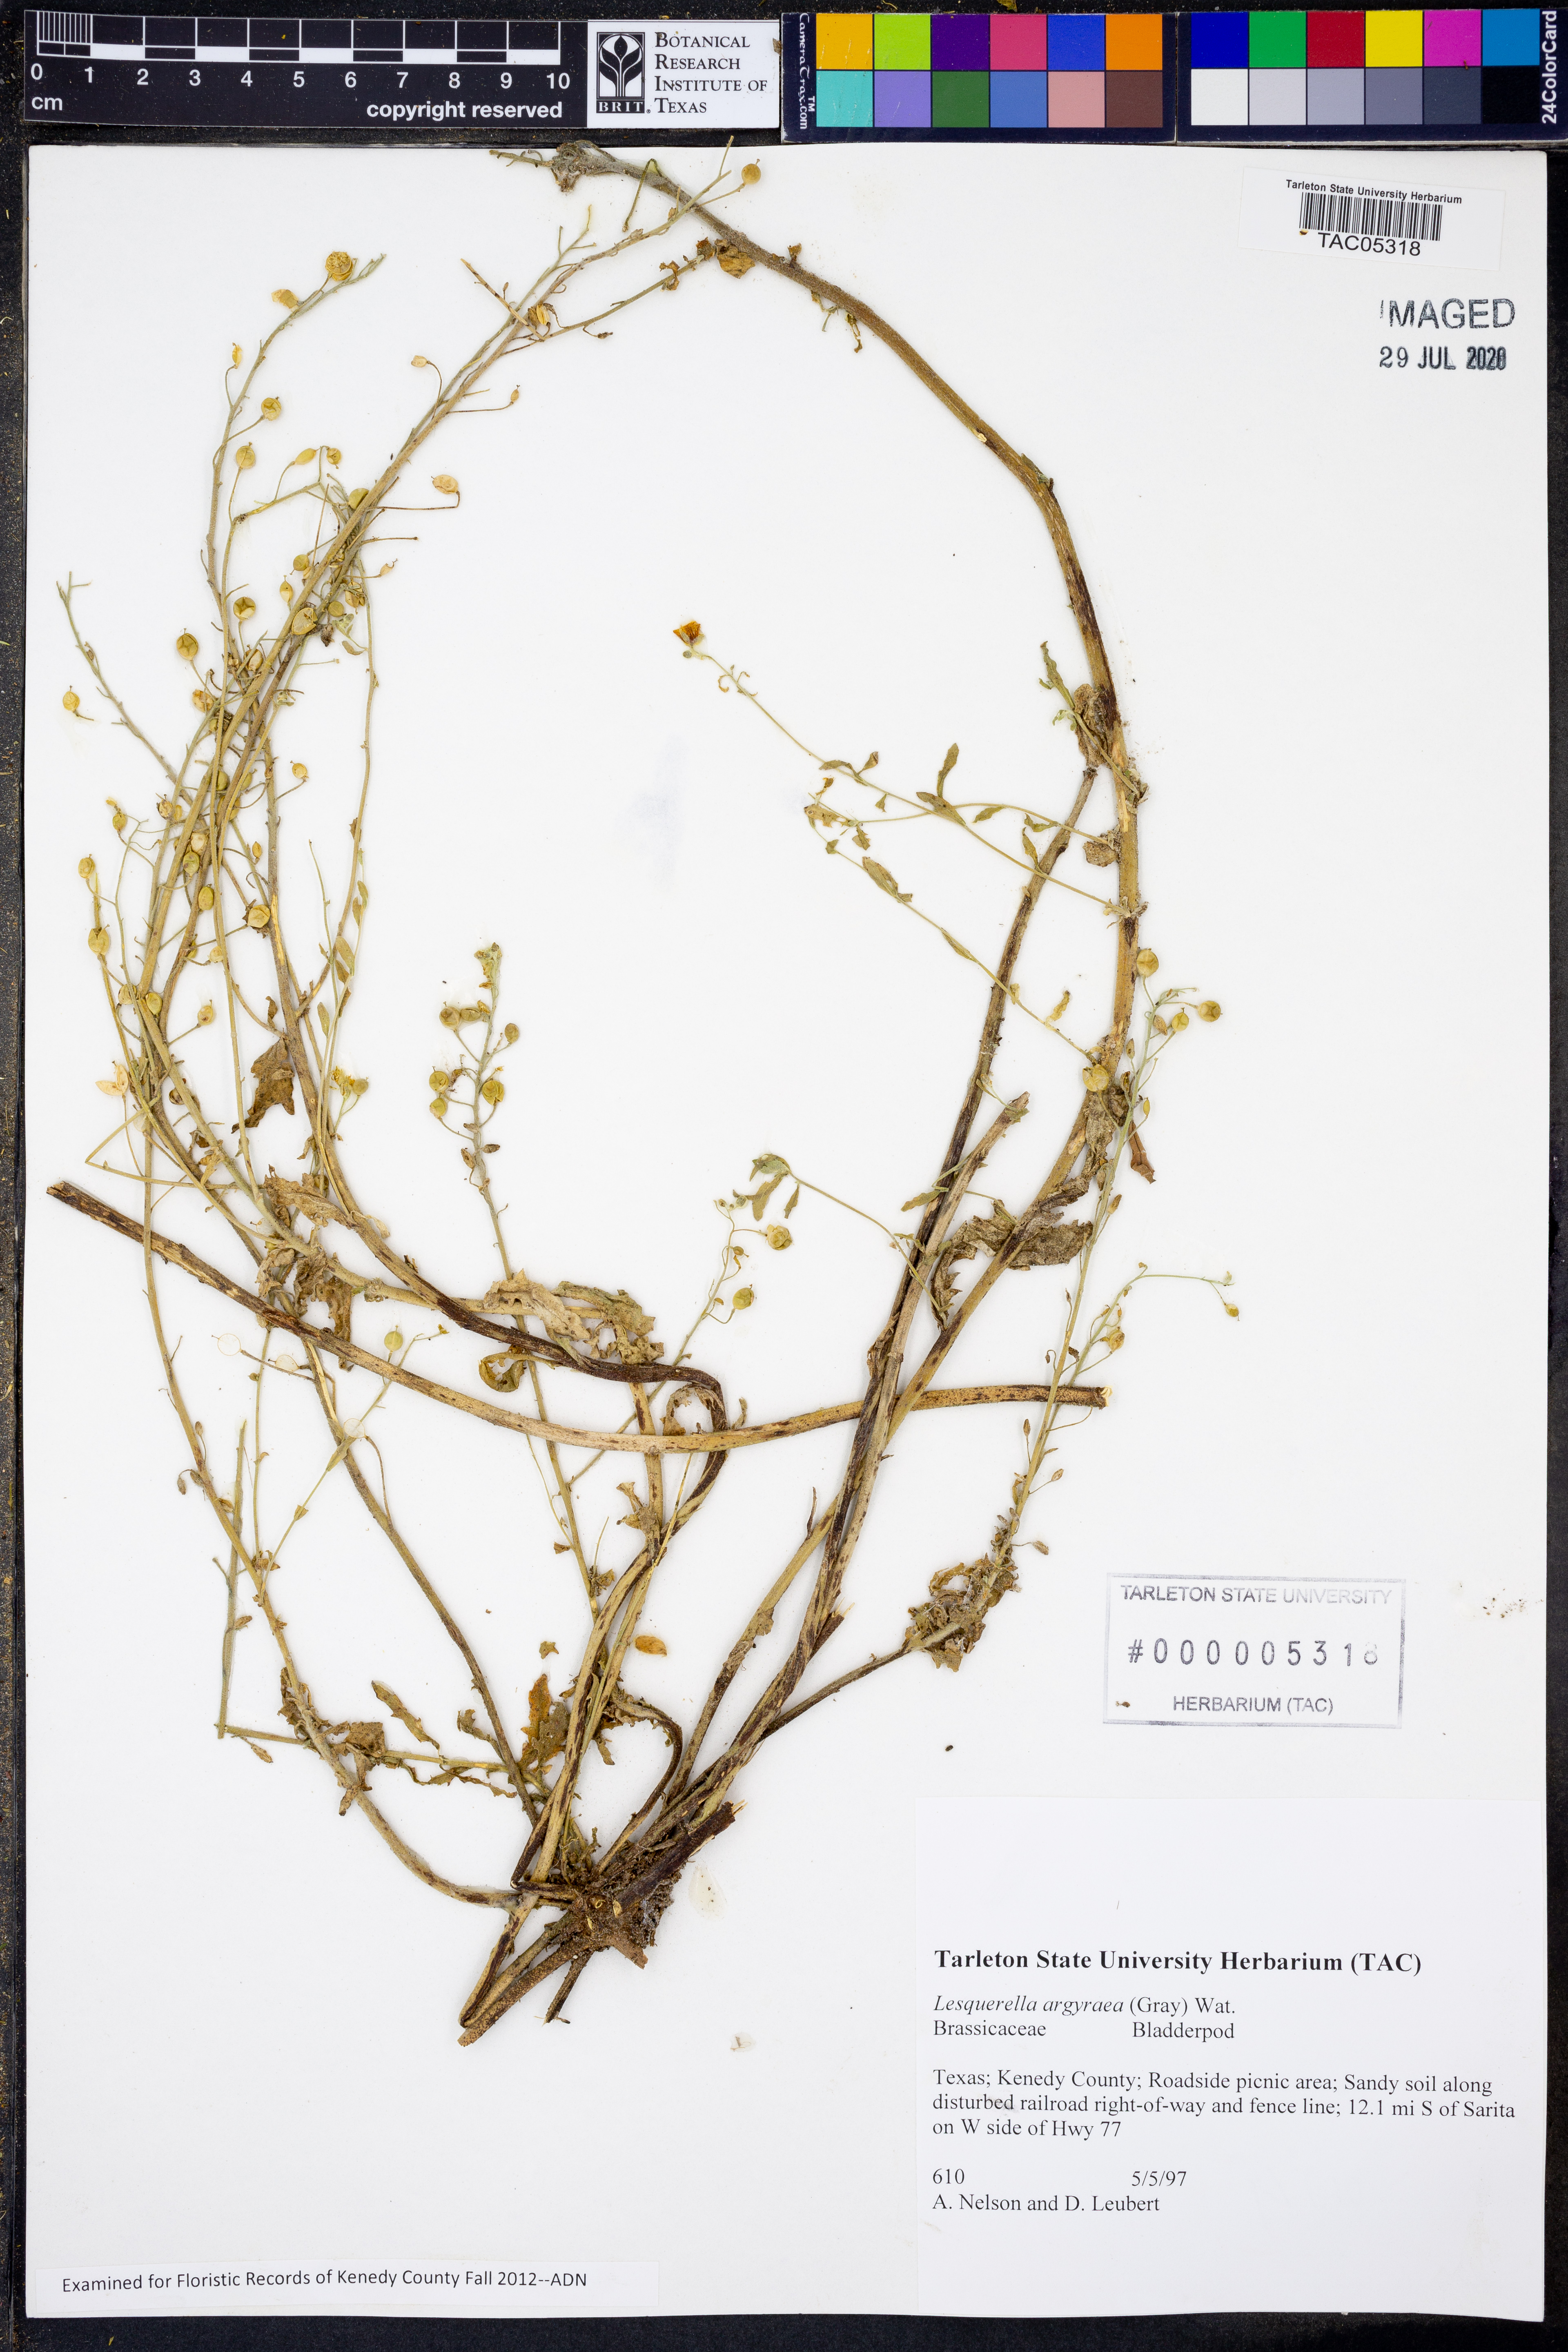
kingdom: Plantae
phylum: Tracheophyta
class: Magnoliopsida
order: Brassicales
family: Brassicaceae
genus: Physaria
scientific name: Physaria argyraea
